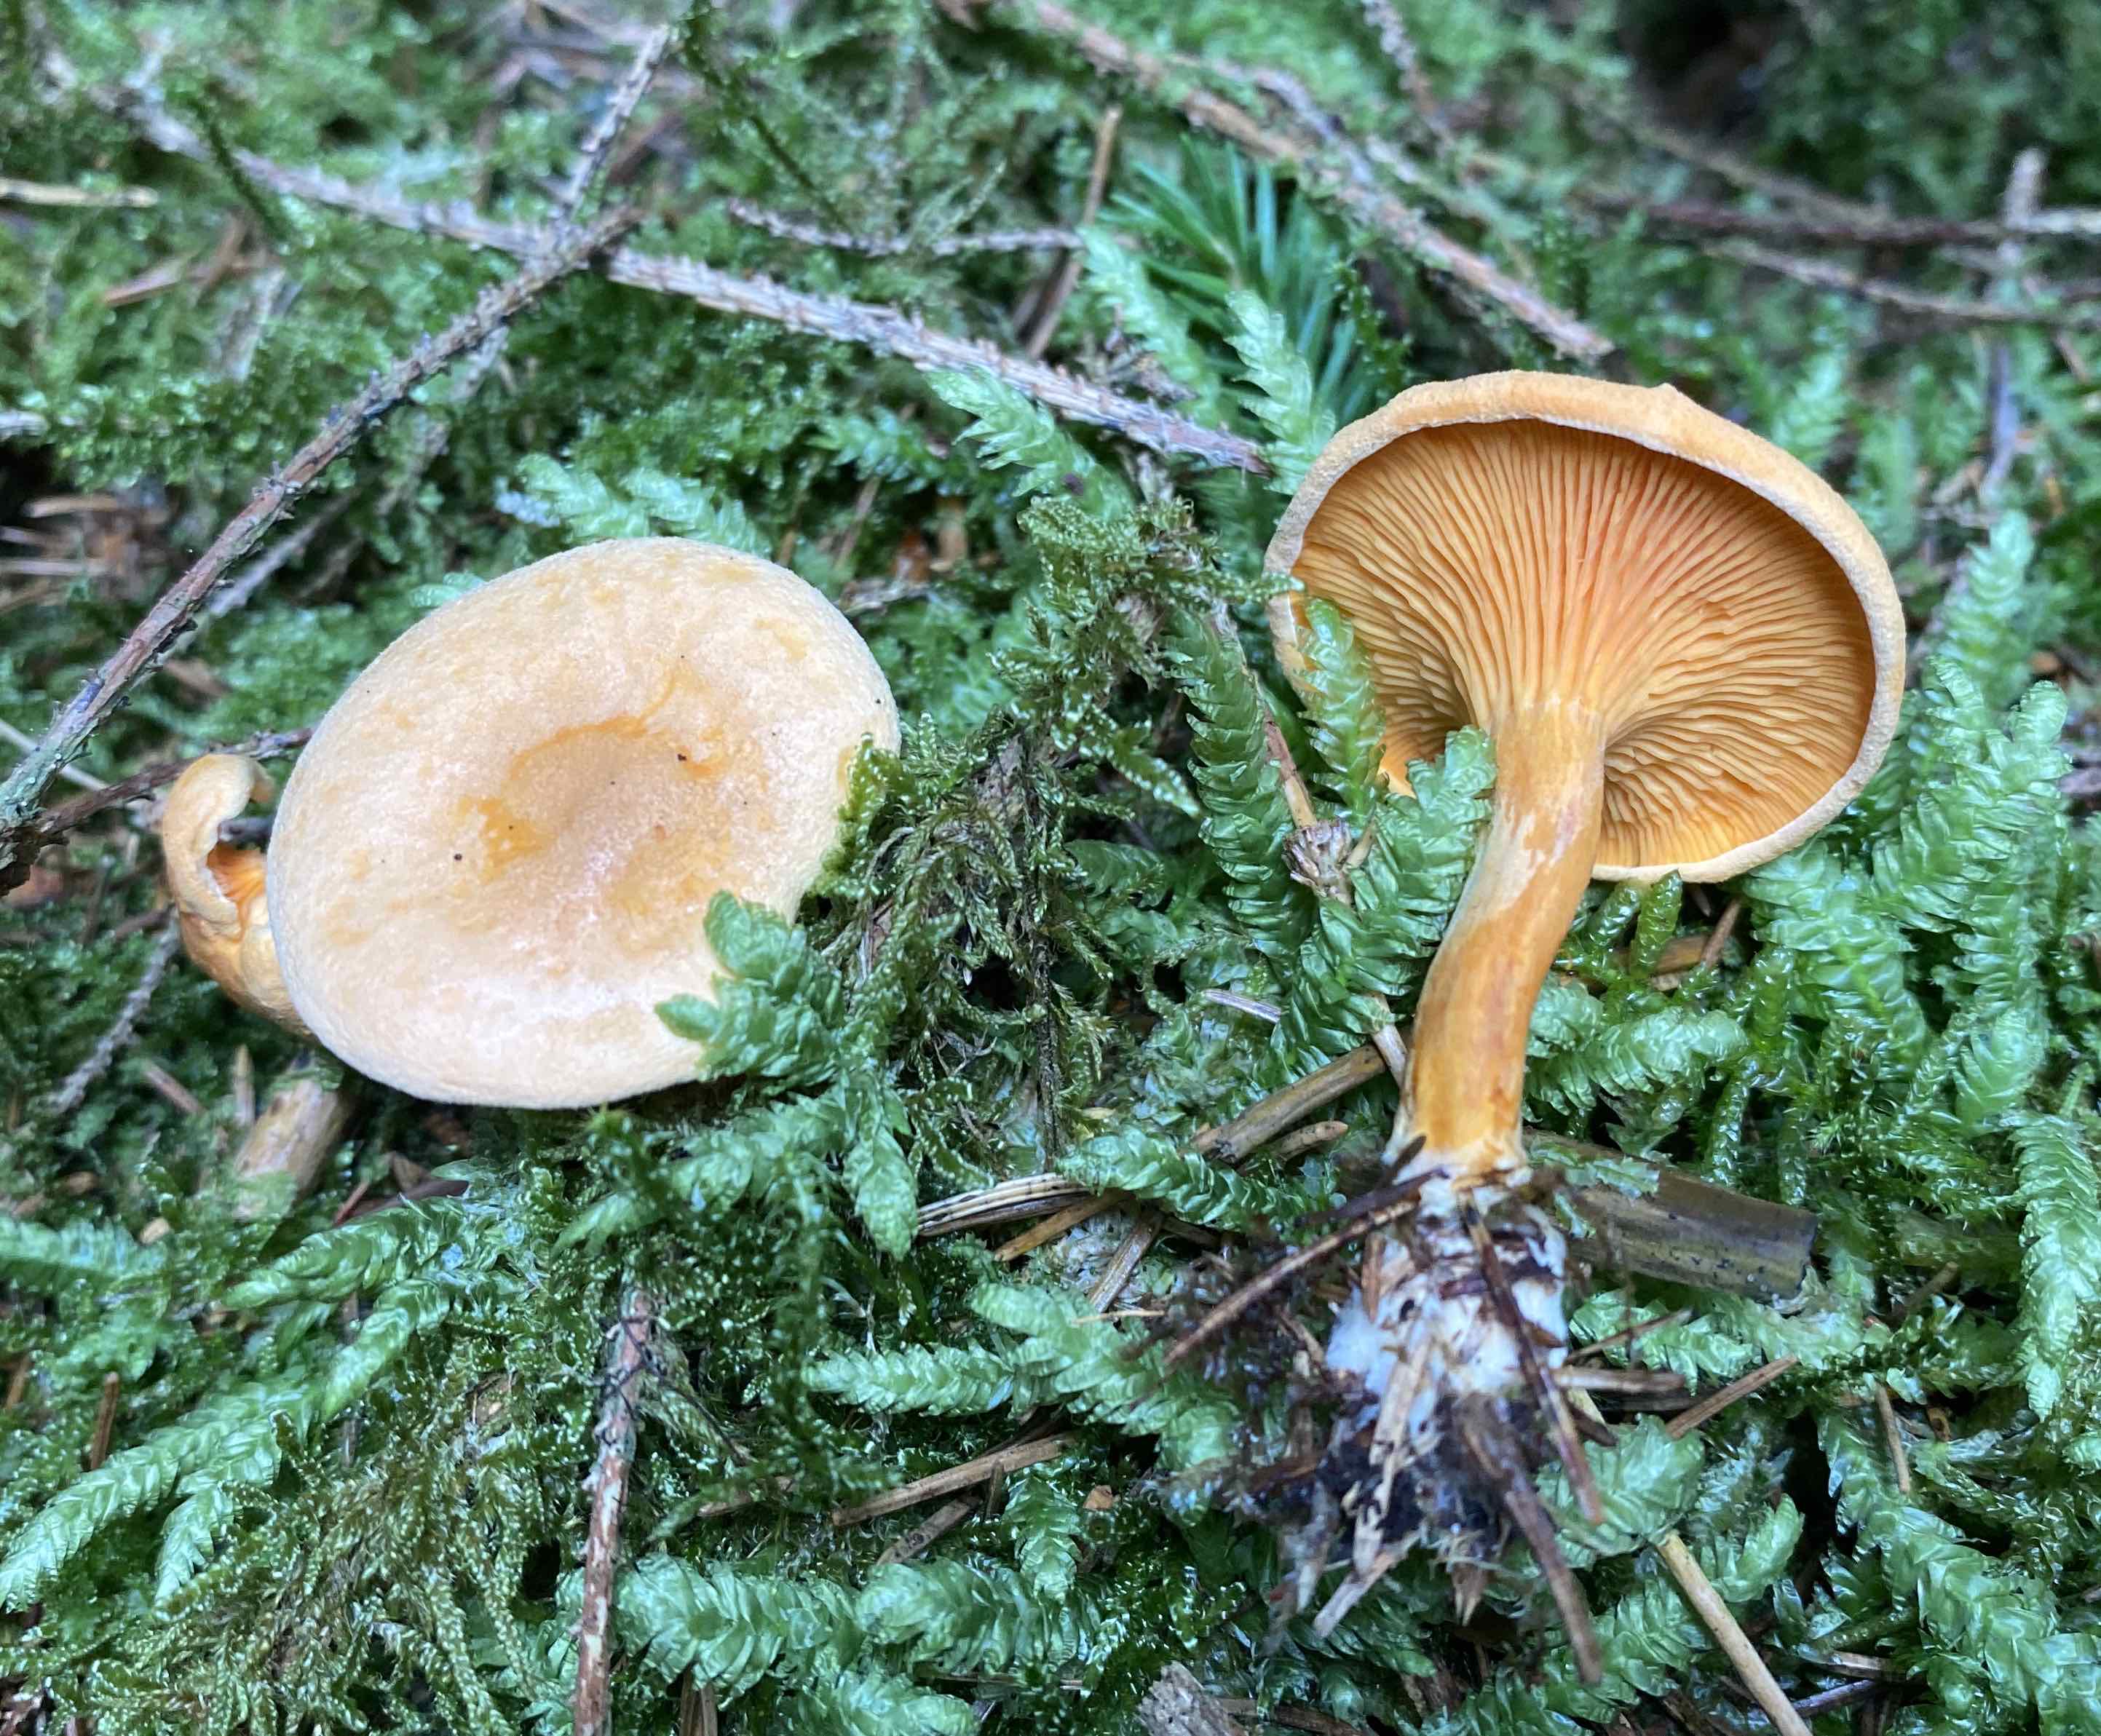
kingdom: Fungi
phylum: Basidiomycota
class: Agaricomycetes
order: Boletales
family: Hygrophoropsidaceae
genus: Hygrophoropsis
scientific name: Hygrophoropsis aurantiaca
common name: almindelig orangekantarel
